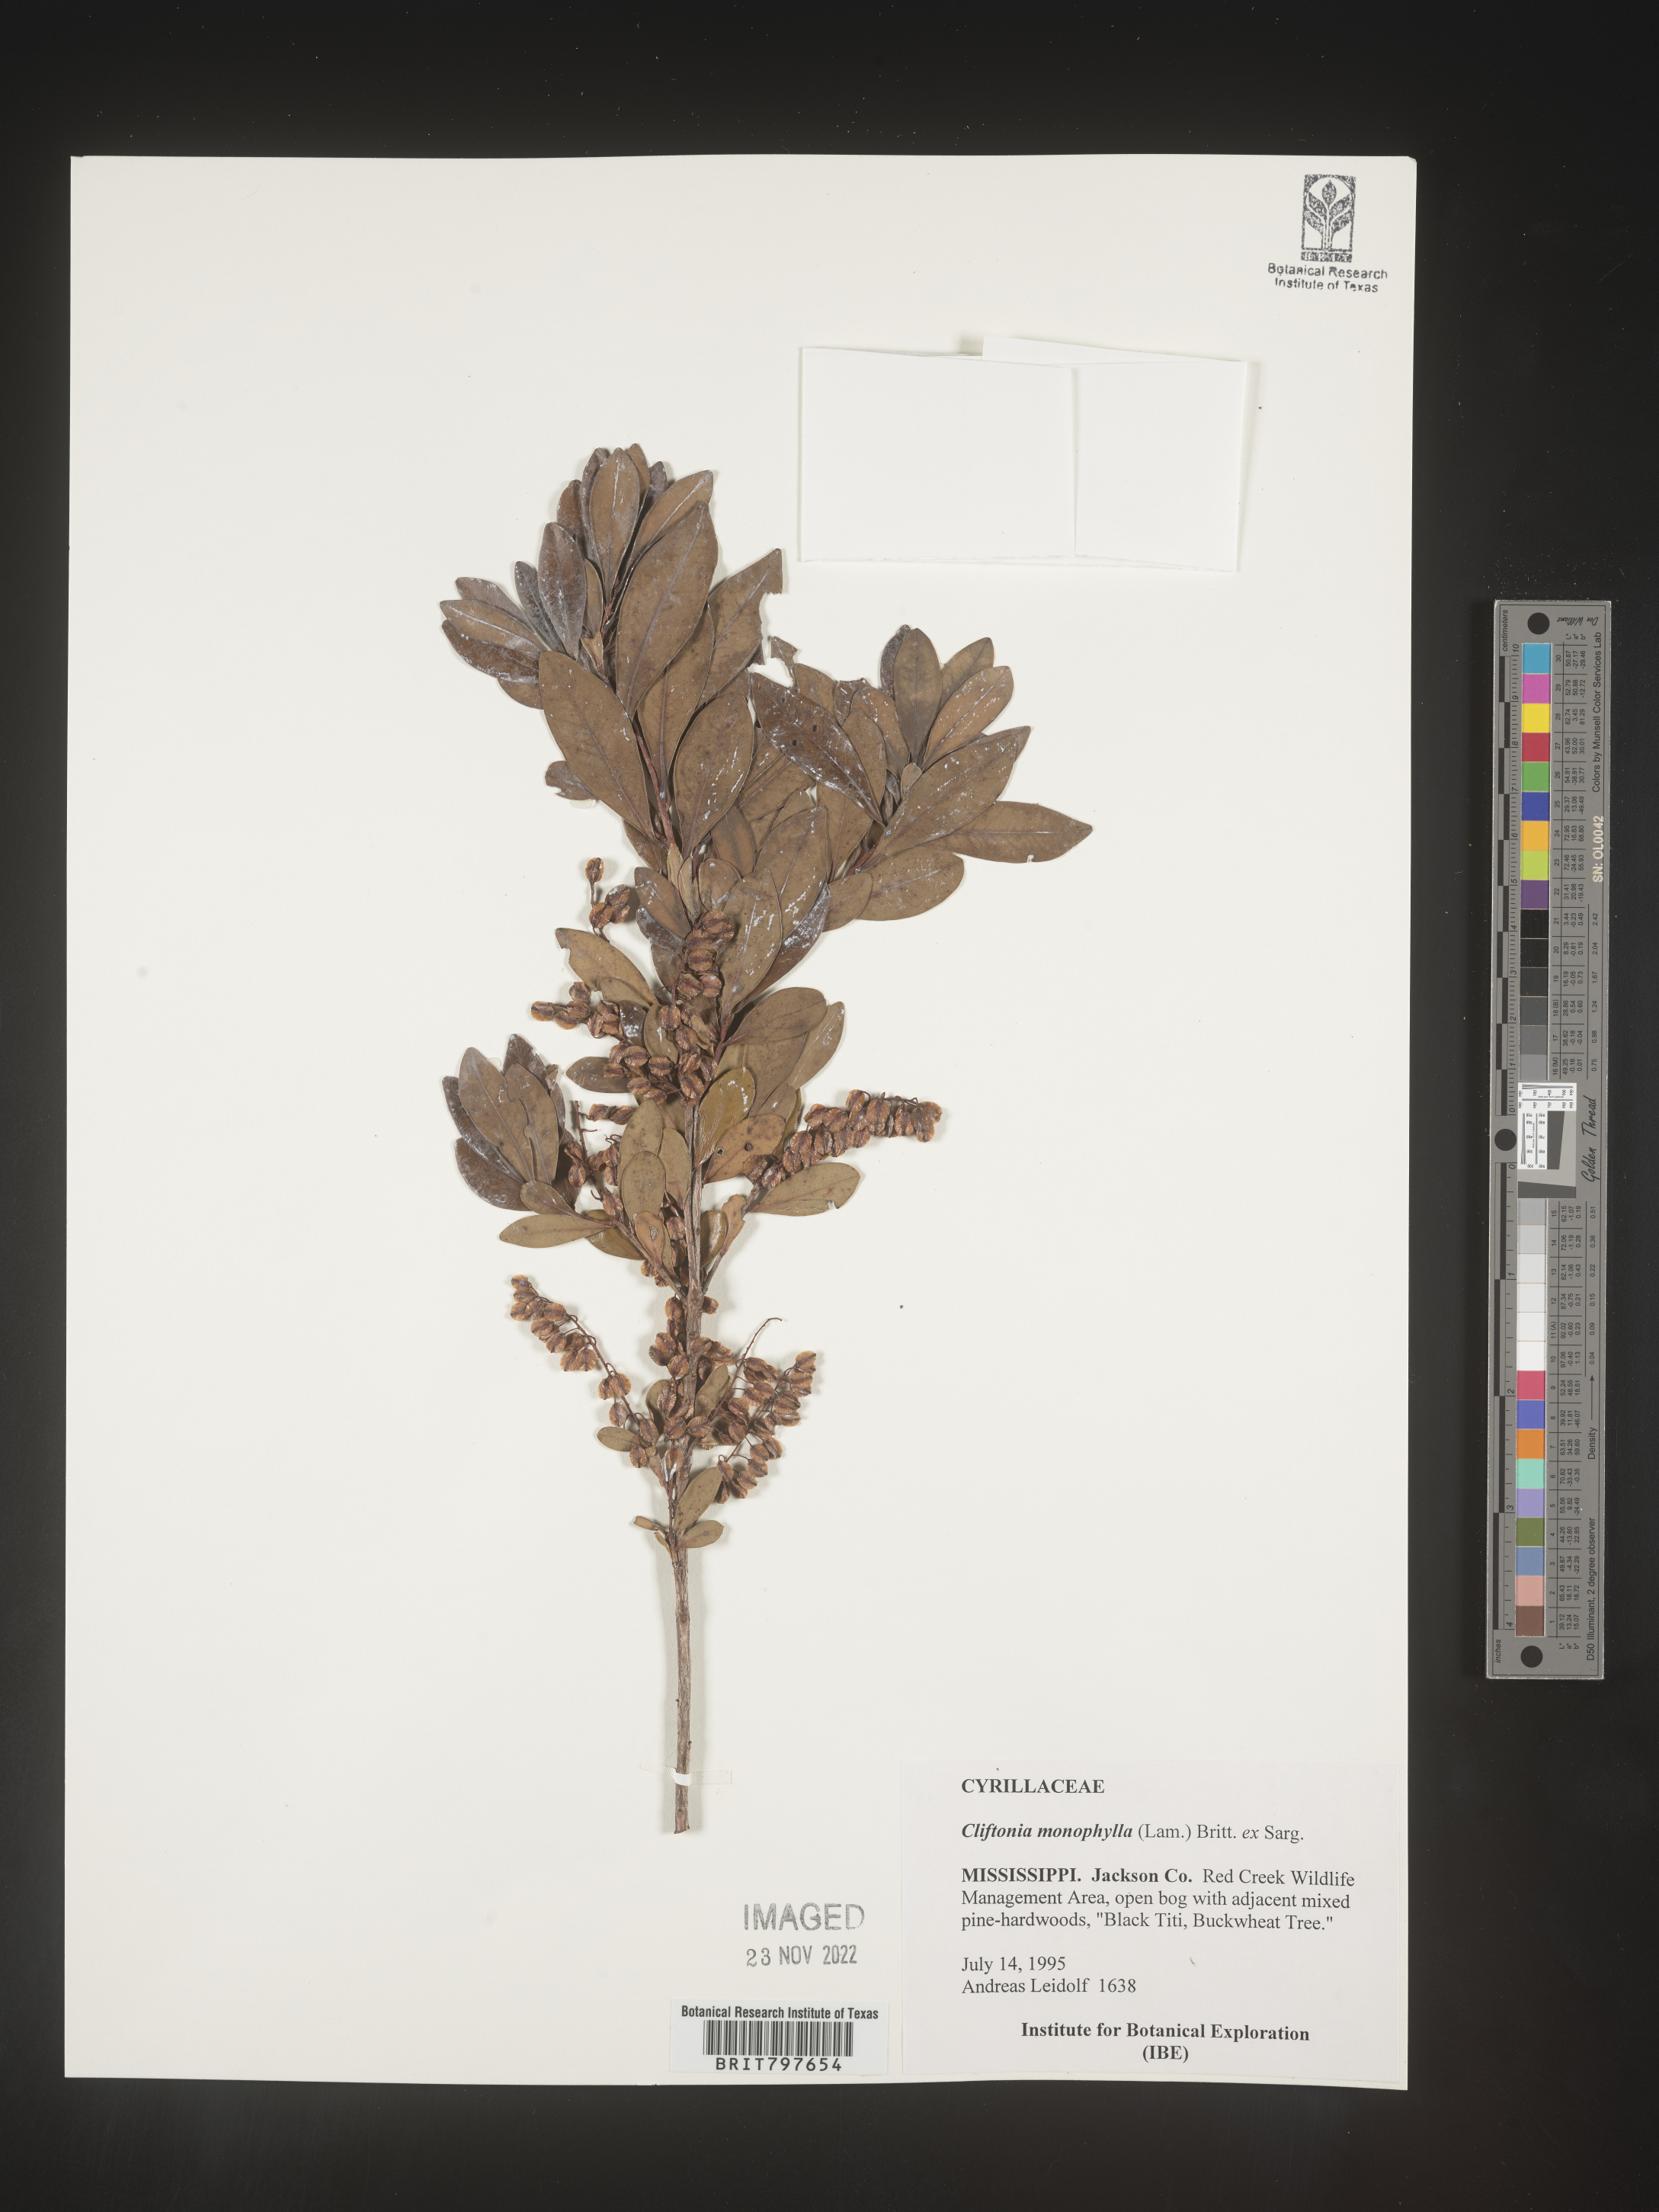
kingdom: Plantae
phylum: Tracheophyta
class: Magnoliopsida
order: Ericales
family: Cyrillaceae
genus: Cliftonia
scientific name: Cliftonia monophylla
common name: Titi
